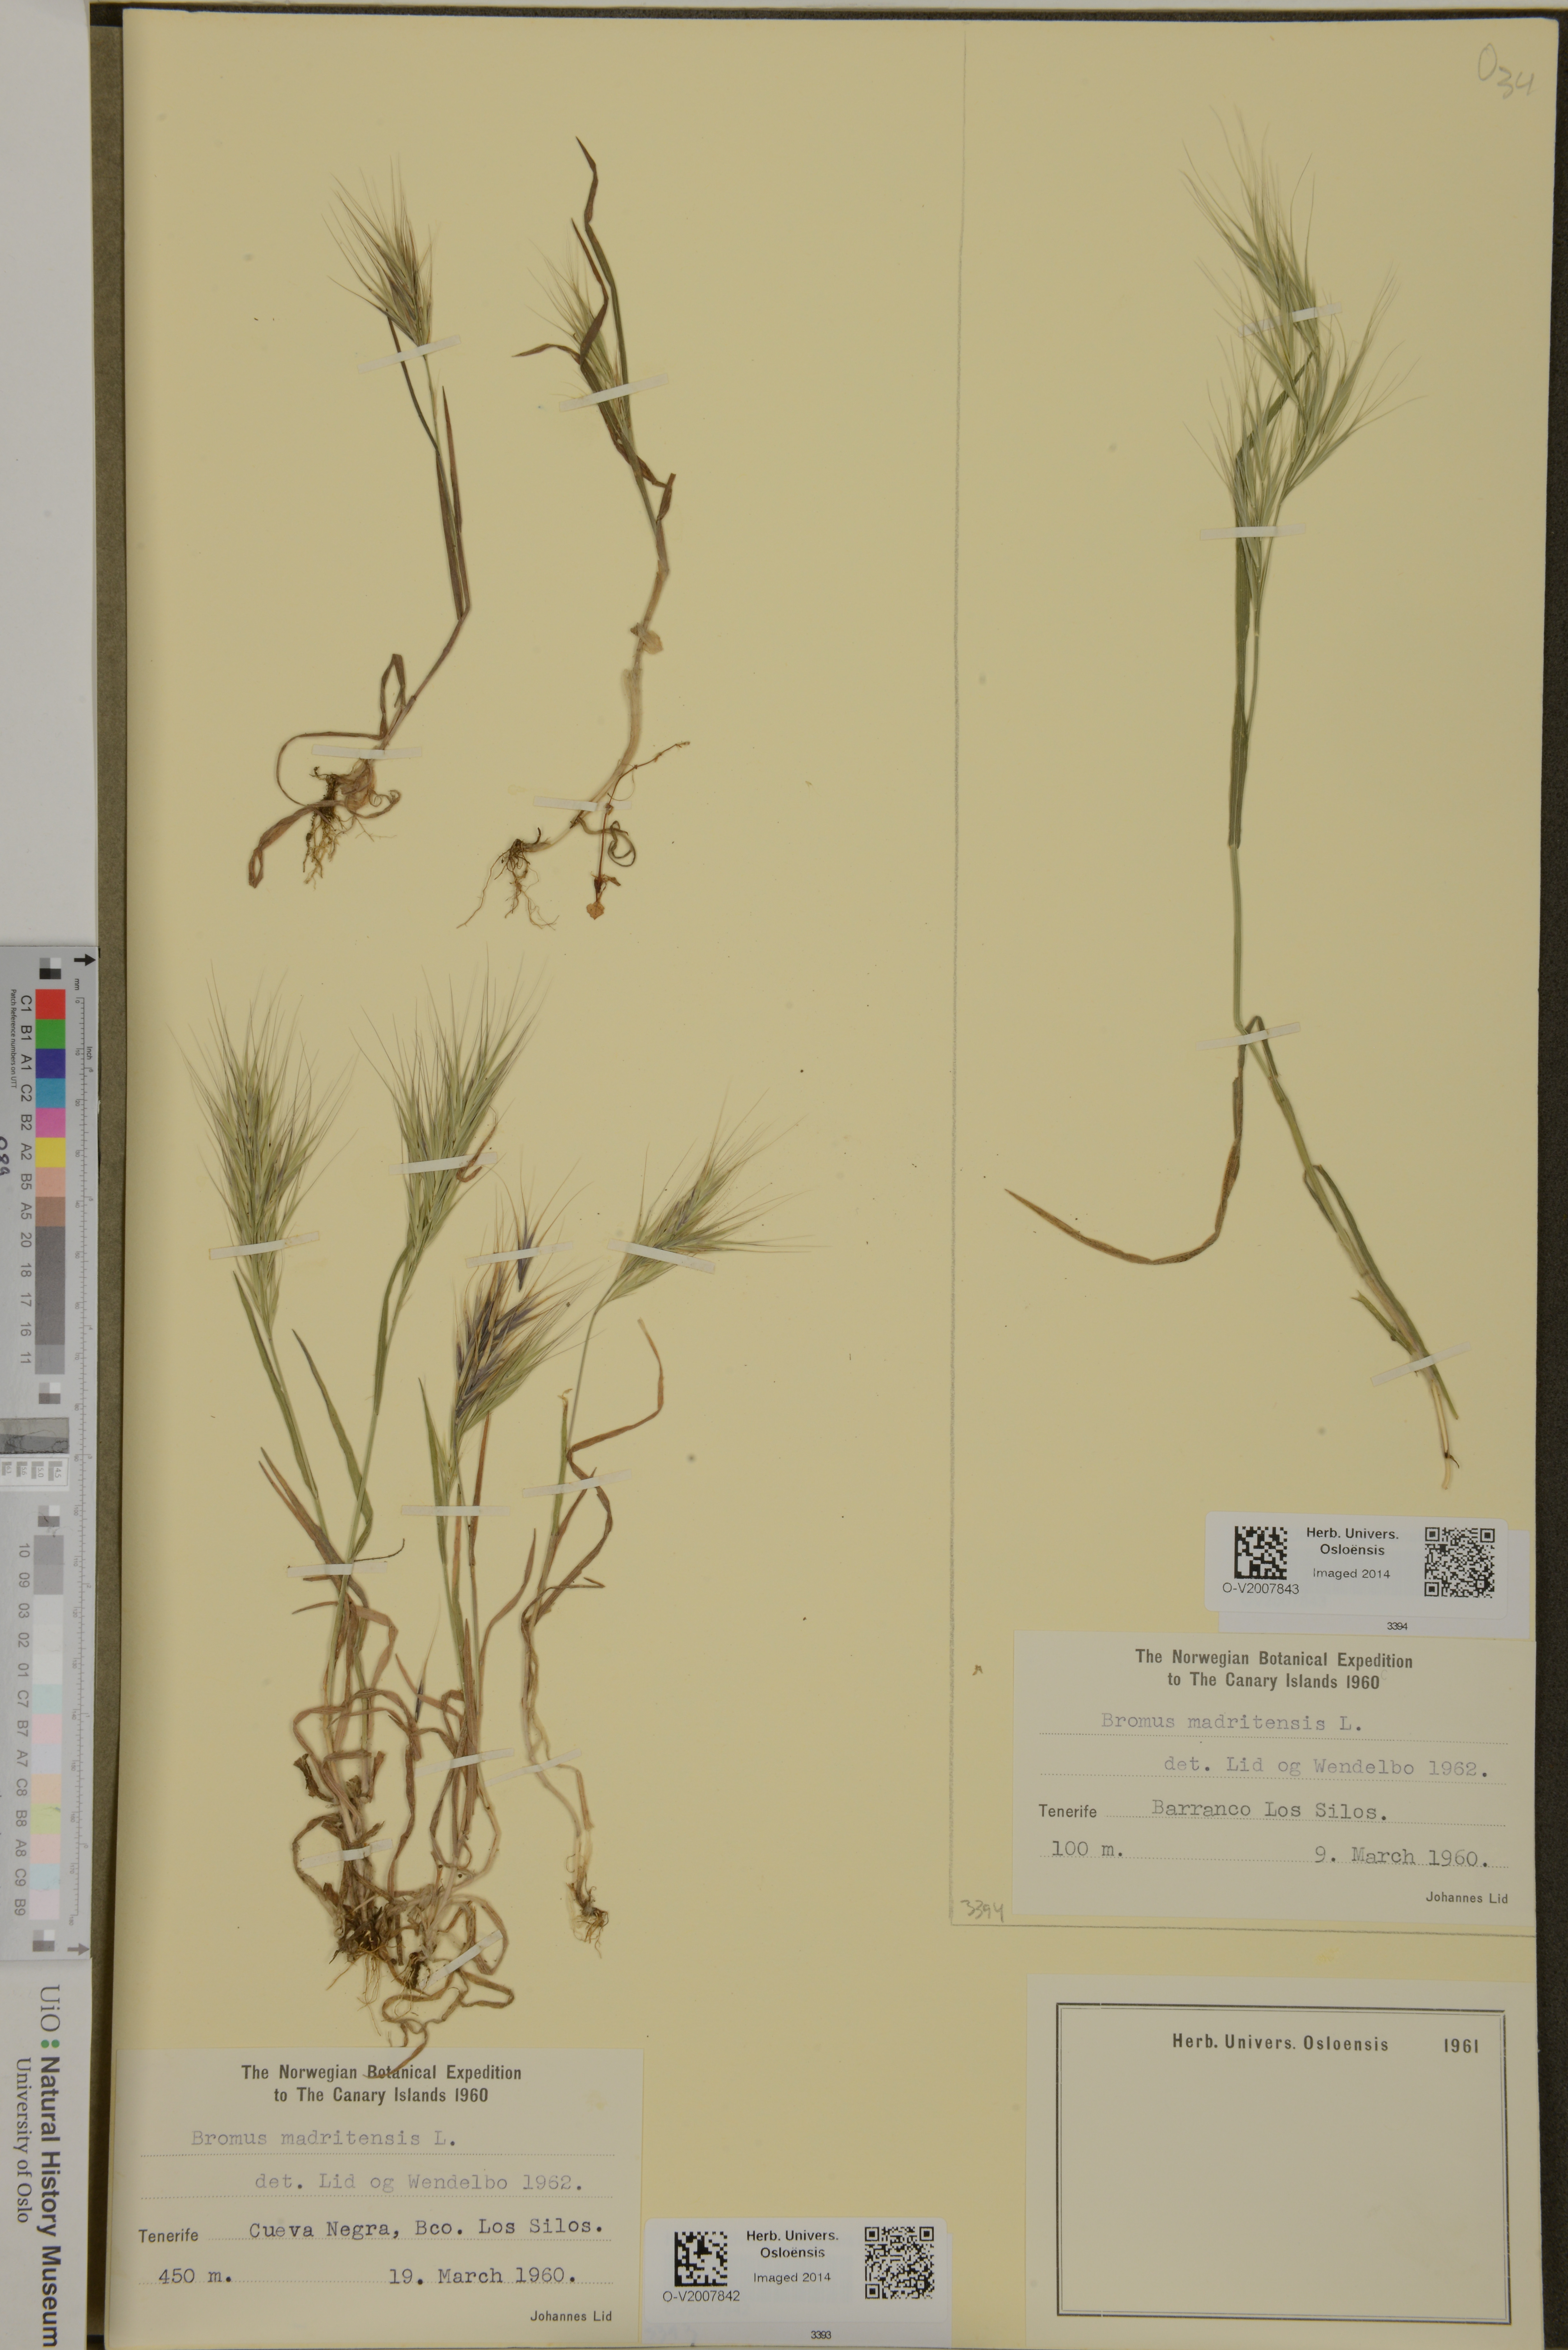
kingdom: Plantae
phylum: Tracheophyta
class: Liliopsida
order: Poales
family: Poaceae
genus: Bromus
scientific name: Bromus madritensis
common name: Compact brome
